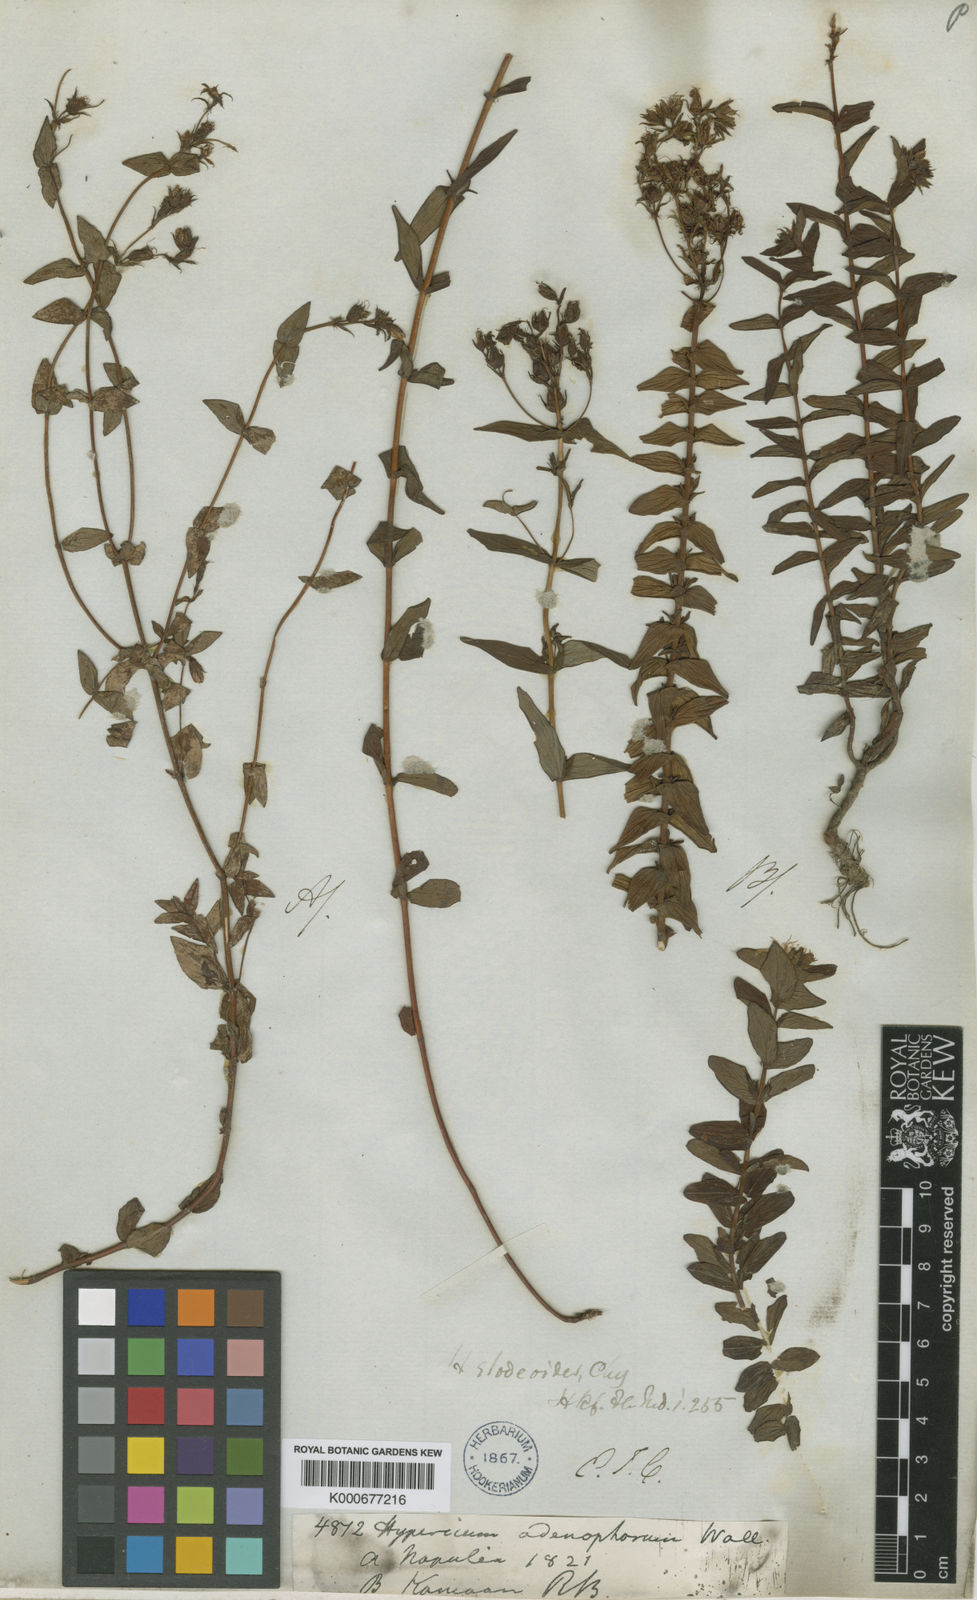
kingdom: Plantae
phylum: Tracheophyta
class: Magnoliopsida
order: Malpighiales
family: Hypericaceae
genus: Hypericum
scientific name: Hypericum elodeoides
